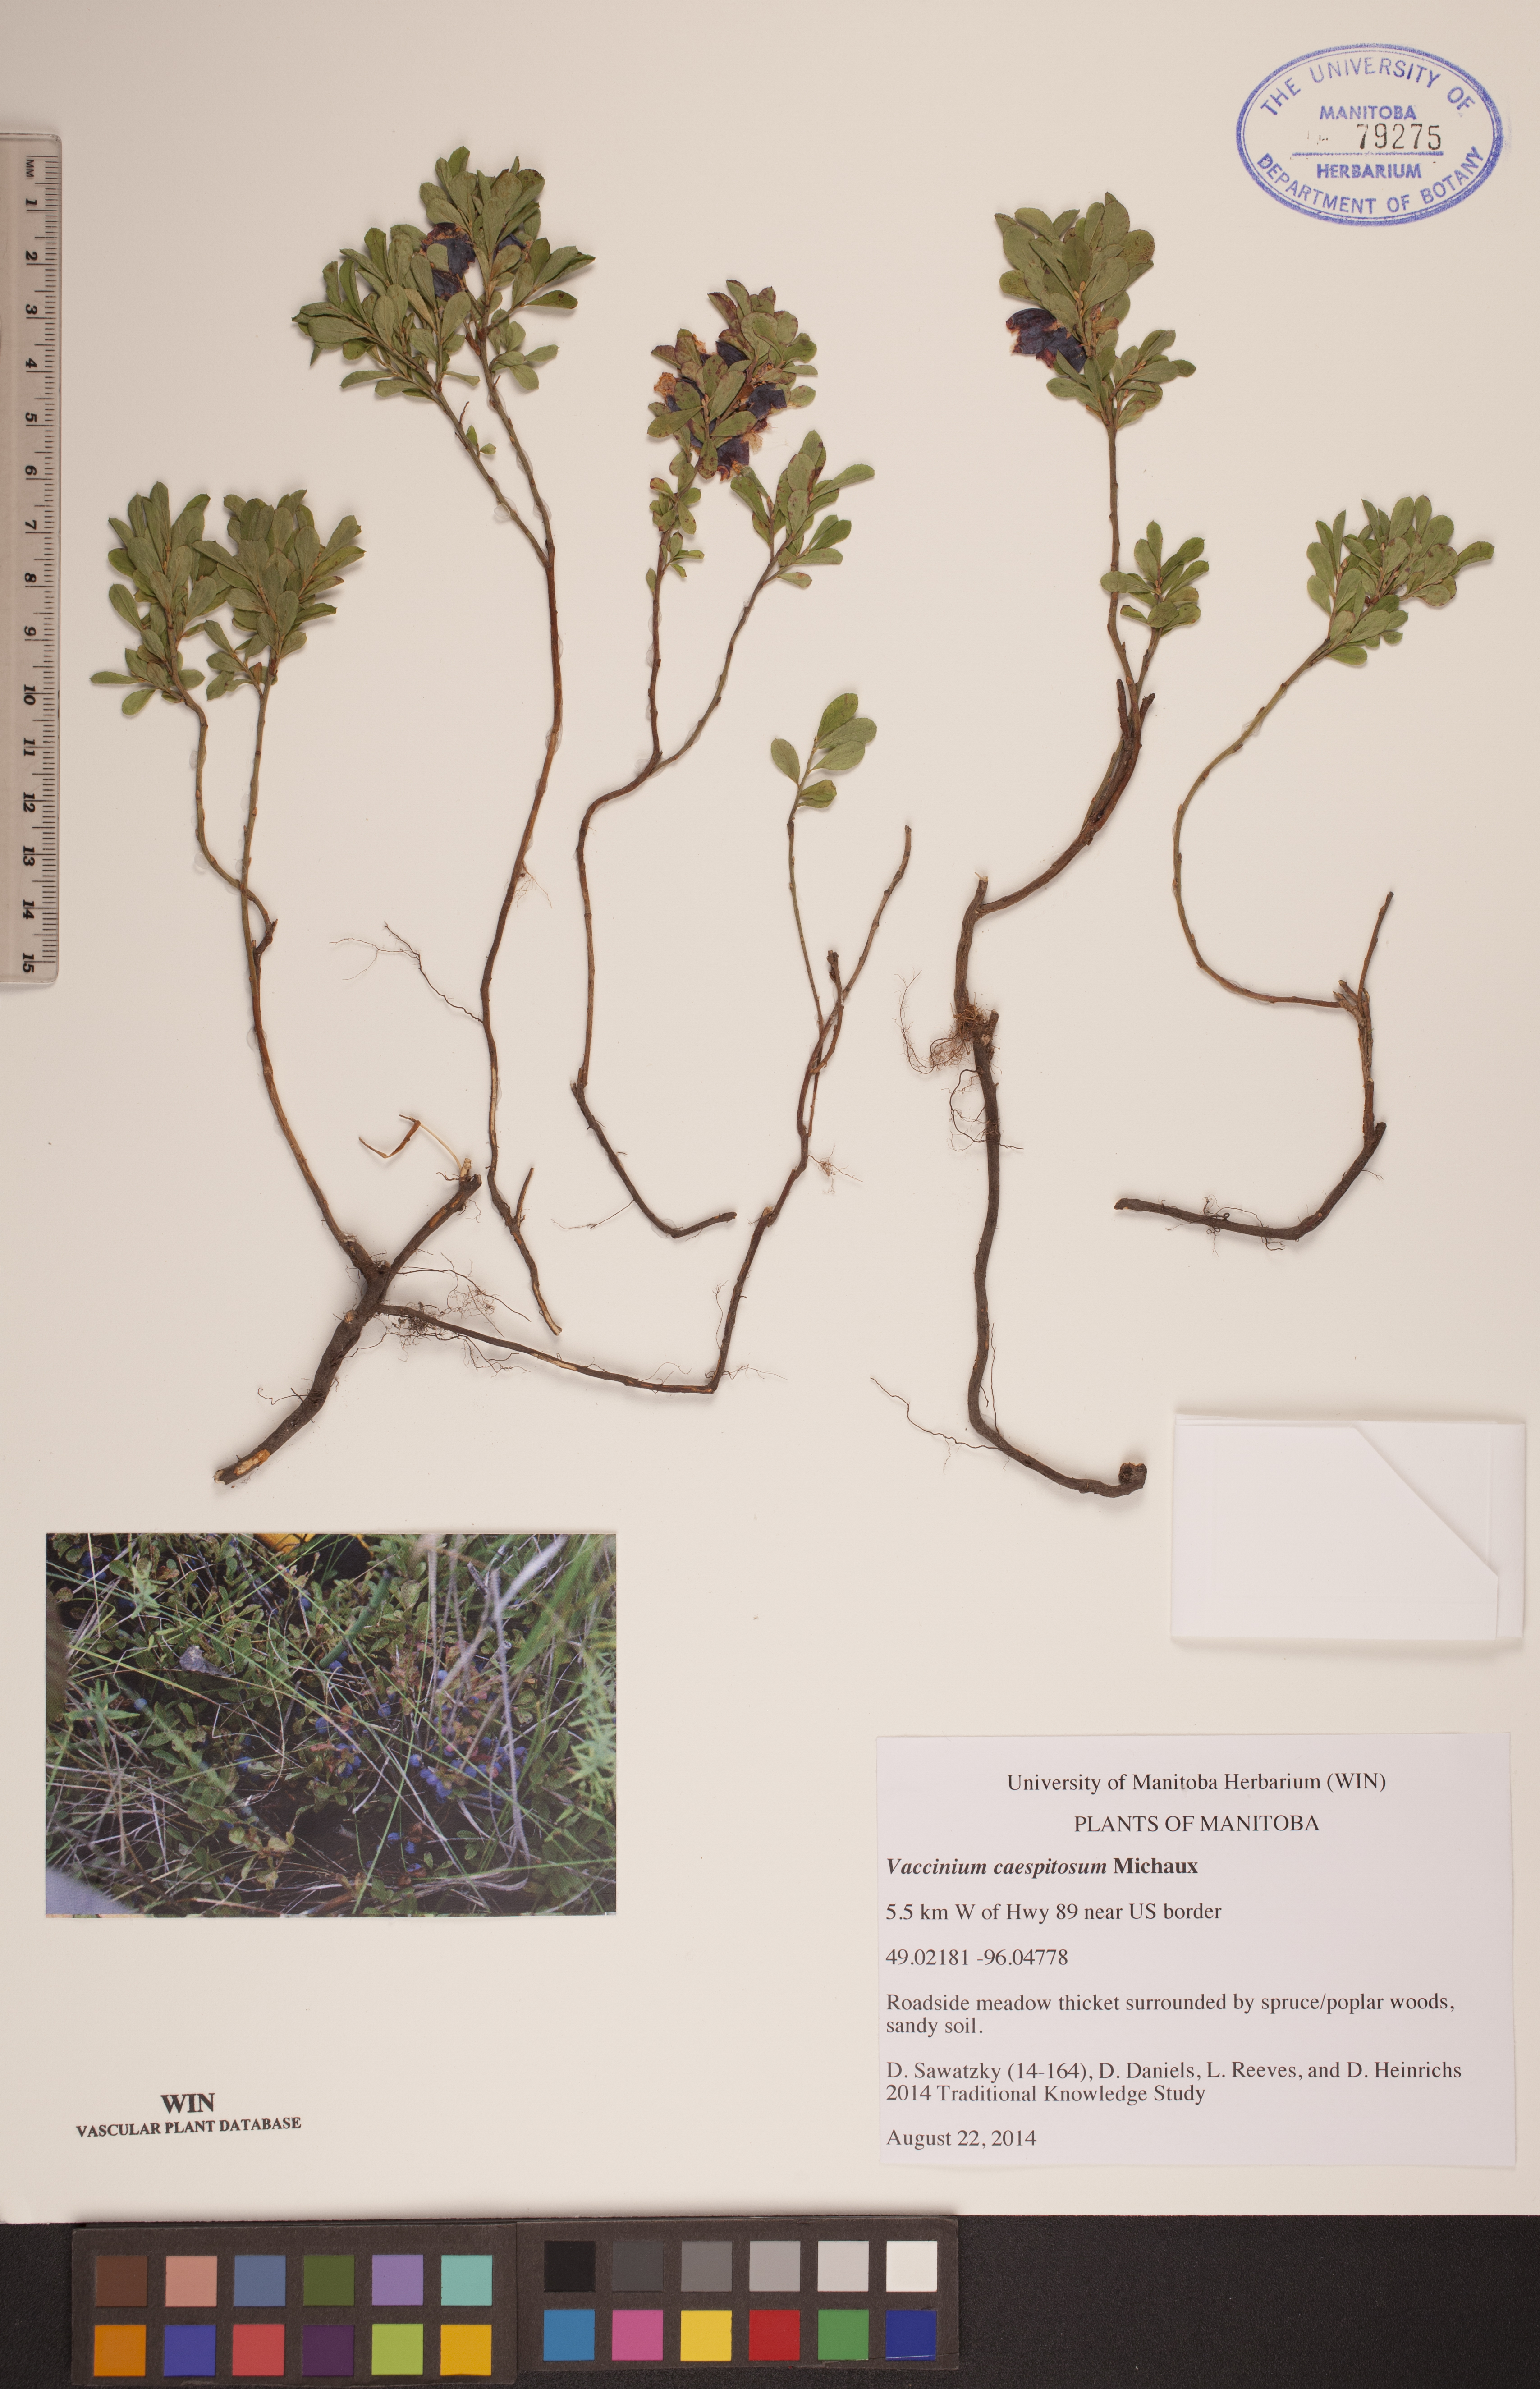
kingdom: Plantae
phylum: Tracheophyta
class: Magnoliopsida
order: Ericales
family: Ericaceae
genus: Vaccinium
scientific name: Vaccinium cespitosum
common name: Dwarf bilberry
